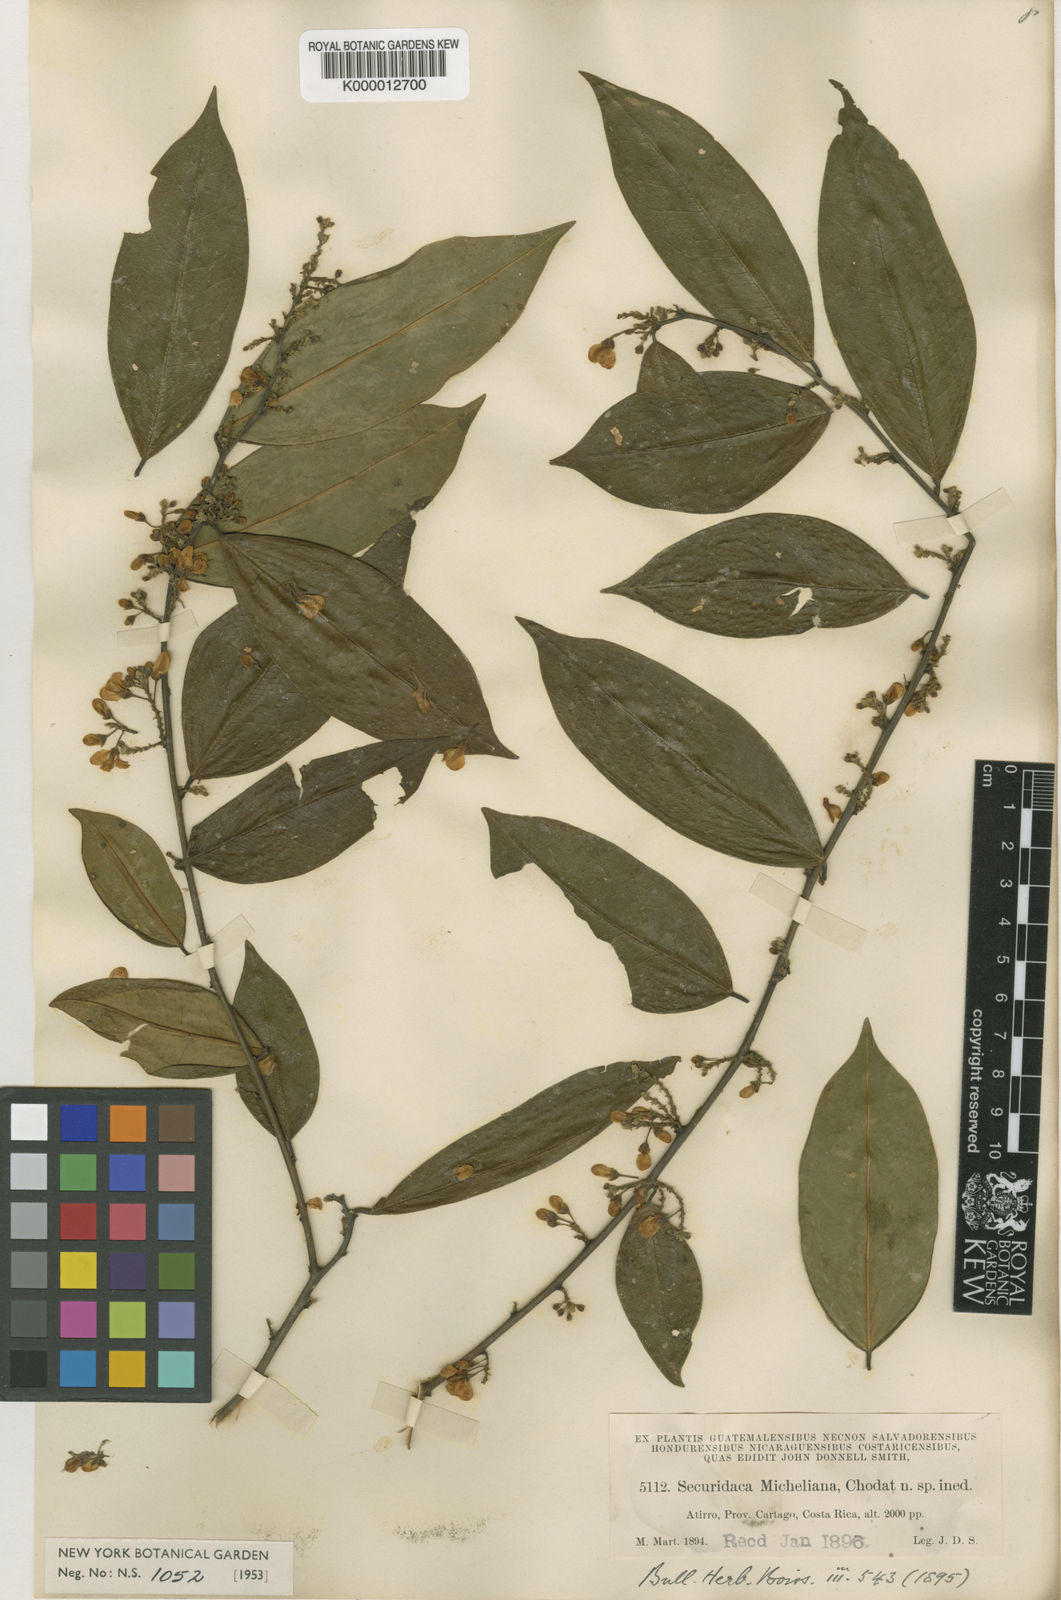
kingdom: Plantae
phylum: Tracheophyta
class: Magnoliopsida
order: Fabales
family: Polygalaceae
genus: Securidaca
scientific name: Securidaca micheliana
